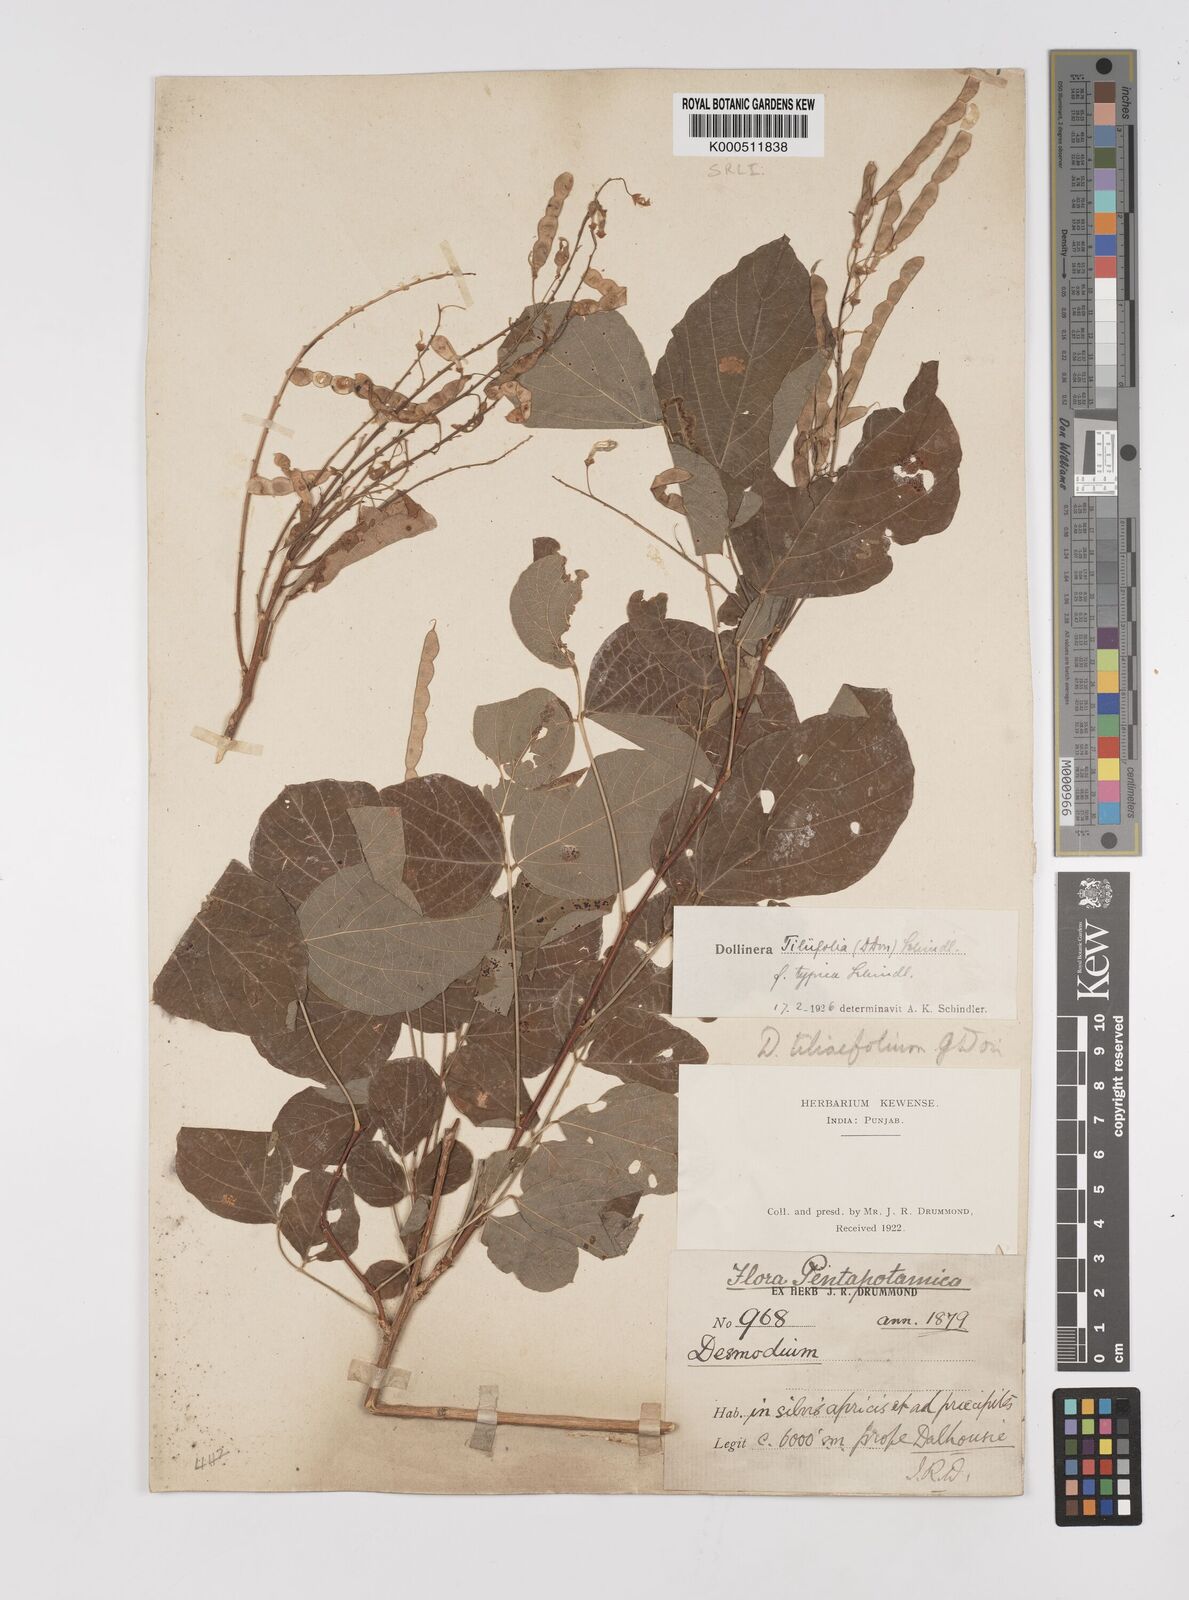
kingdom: Plantae
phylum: Tracheophyta
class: Magnoliopsida
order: Fabales
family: Fabaceae
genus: Sunhangia
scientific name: Sunhangia elegans
